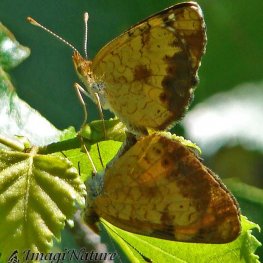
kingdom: Animalia
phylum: Arthropoda
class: Insecta
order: Lepidoptera
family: Nymphalidae
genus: Phyciodes
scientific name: Phyciodes tharos
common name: Northern Crescent
